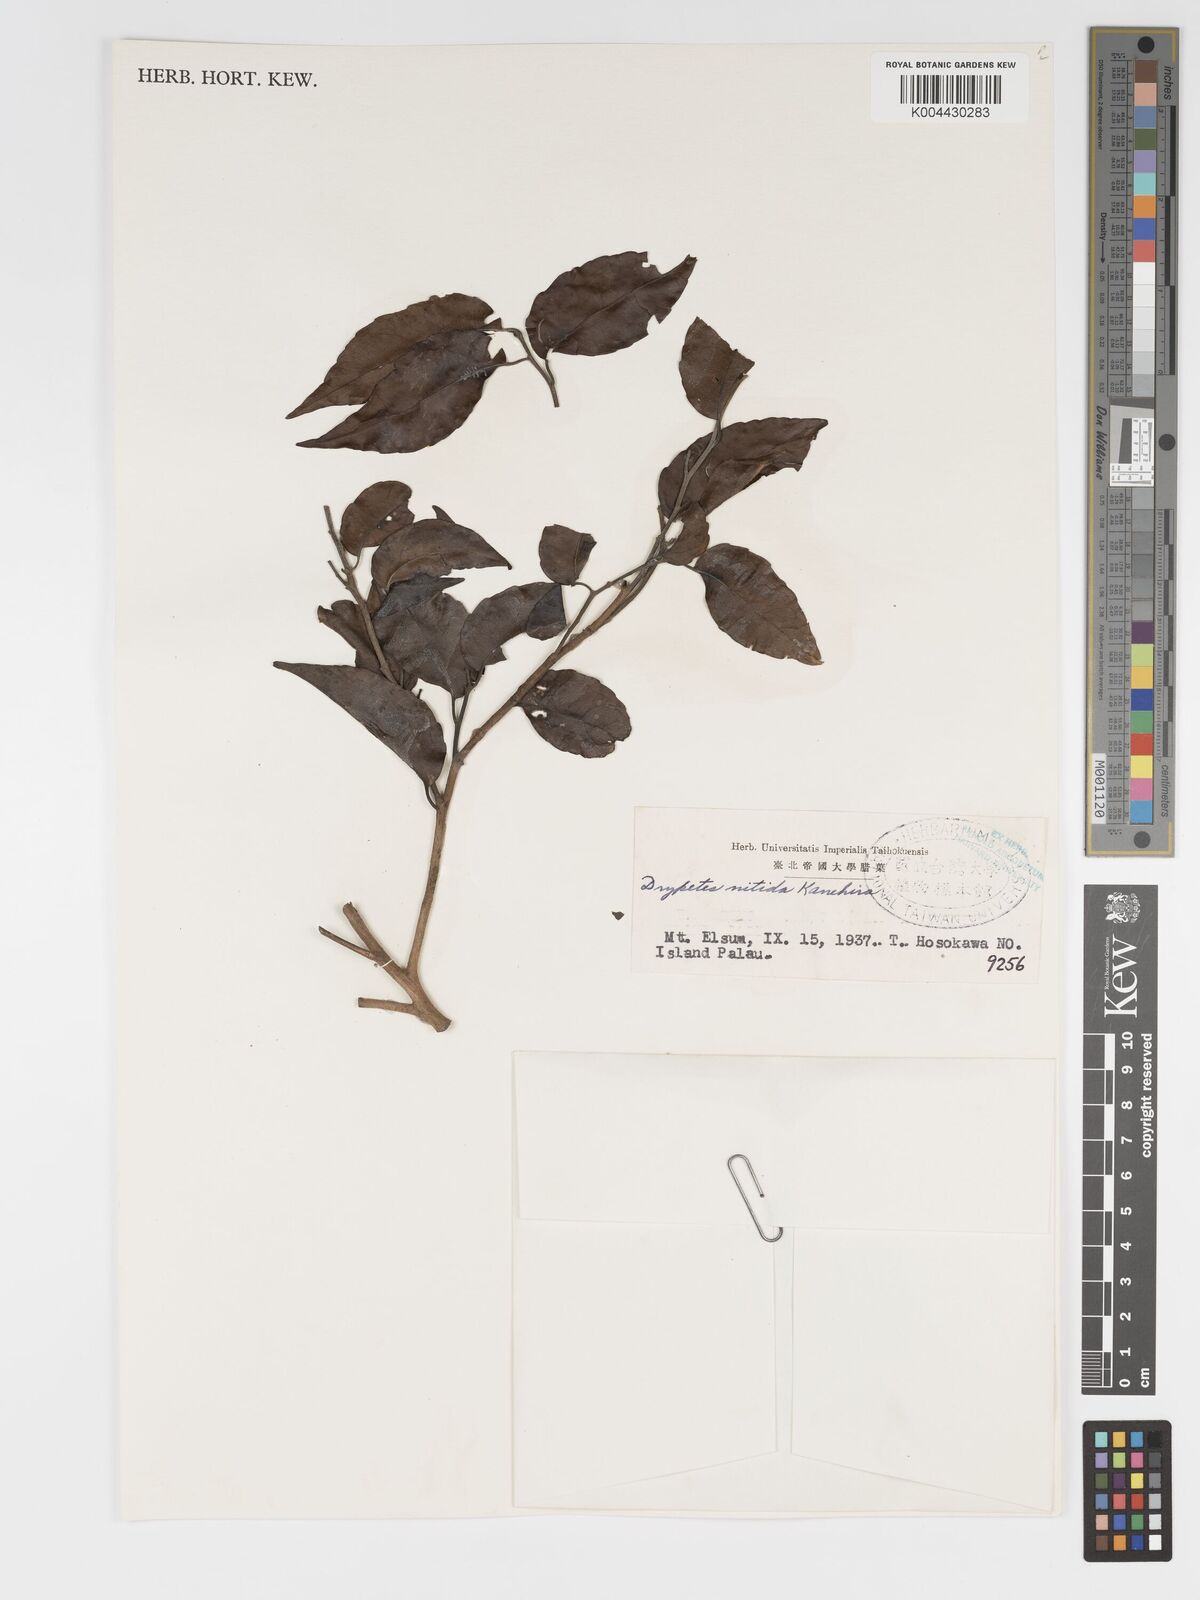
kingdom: Plantae
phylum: Tracheophyta
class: Magnoliopsida
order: Malpighiales
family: Putranjivaceae
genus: Drypetes
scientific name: Drypetes nitida
